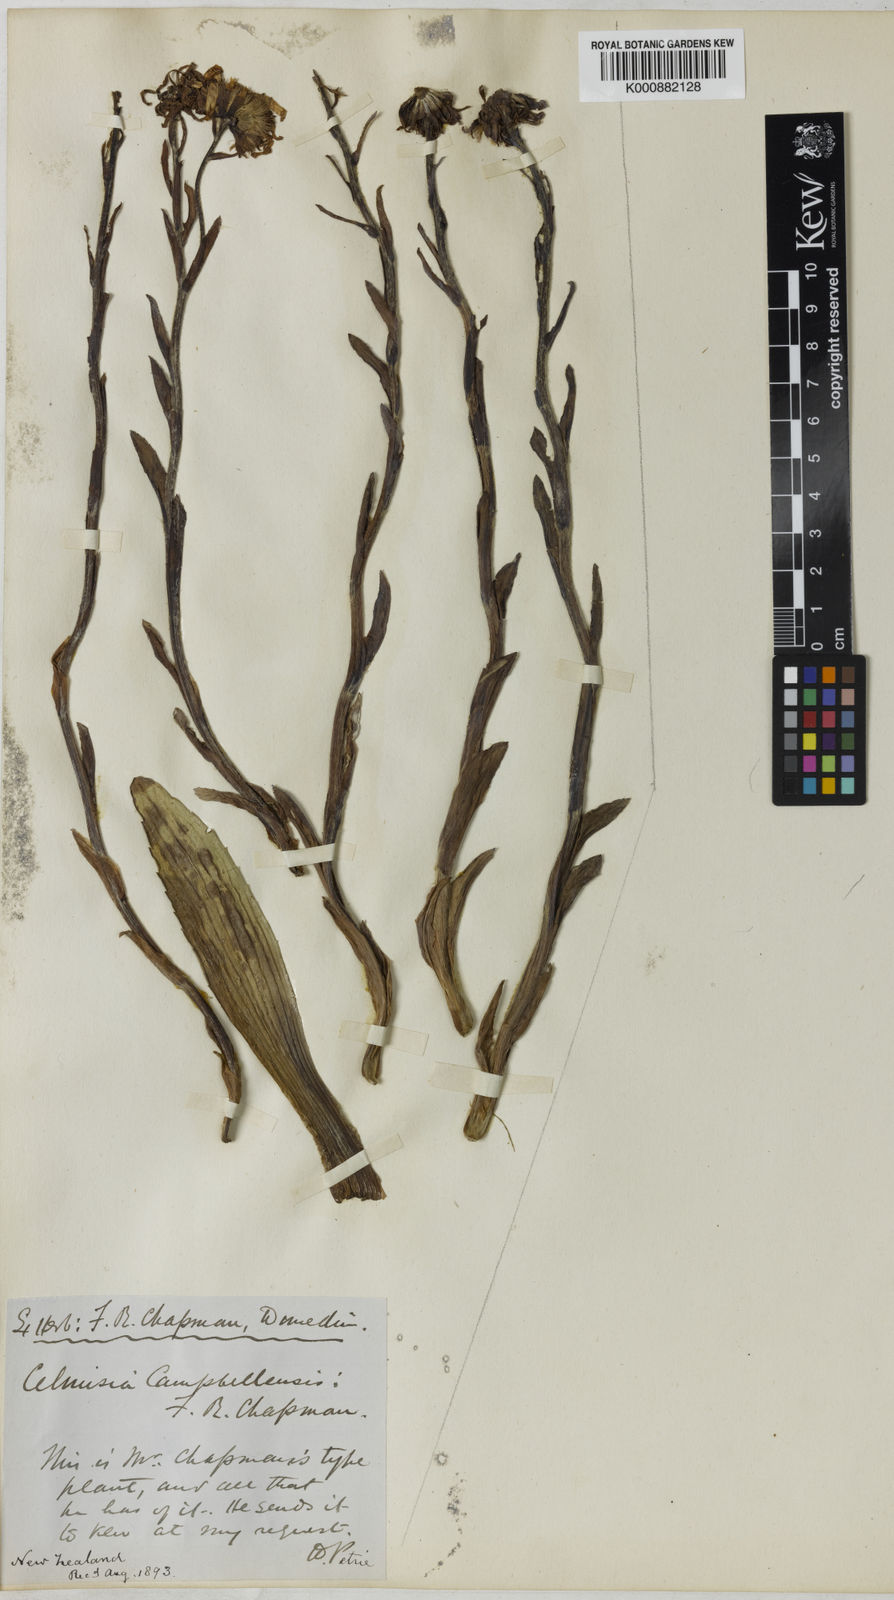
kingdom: Plantae
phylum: Tracheophyta
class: Magnoliopsida
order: Asterales
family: Asteraceae
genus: Damnamenia
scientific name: Damnamenia vernicosa
